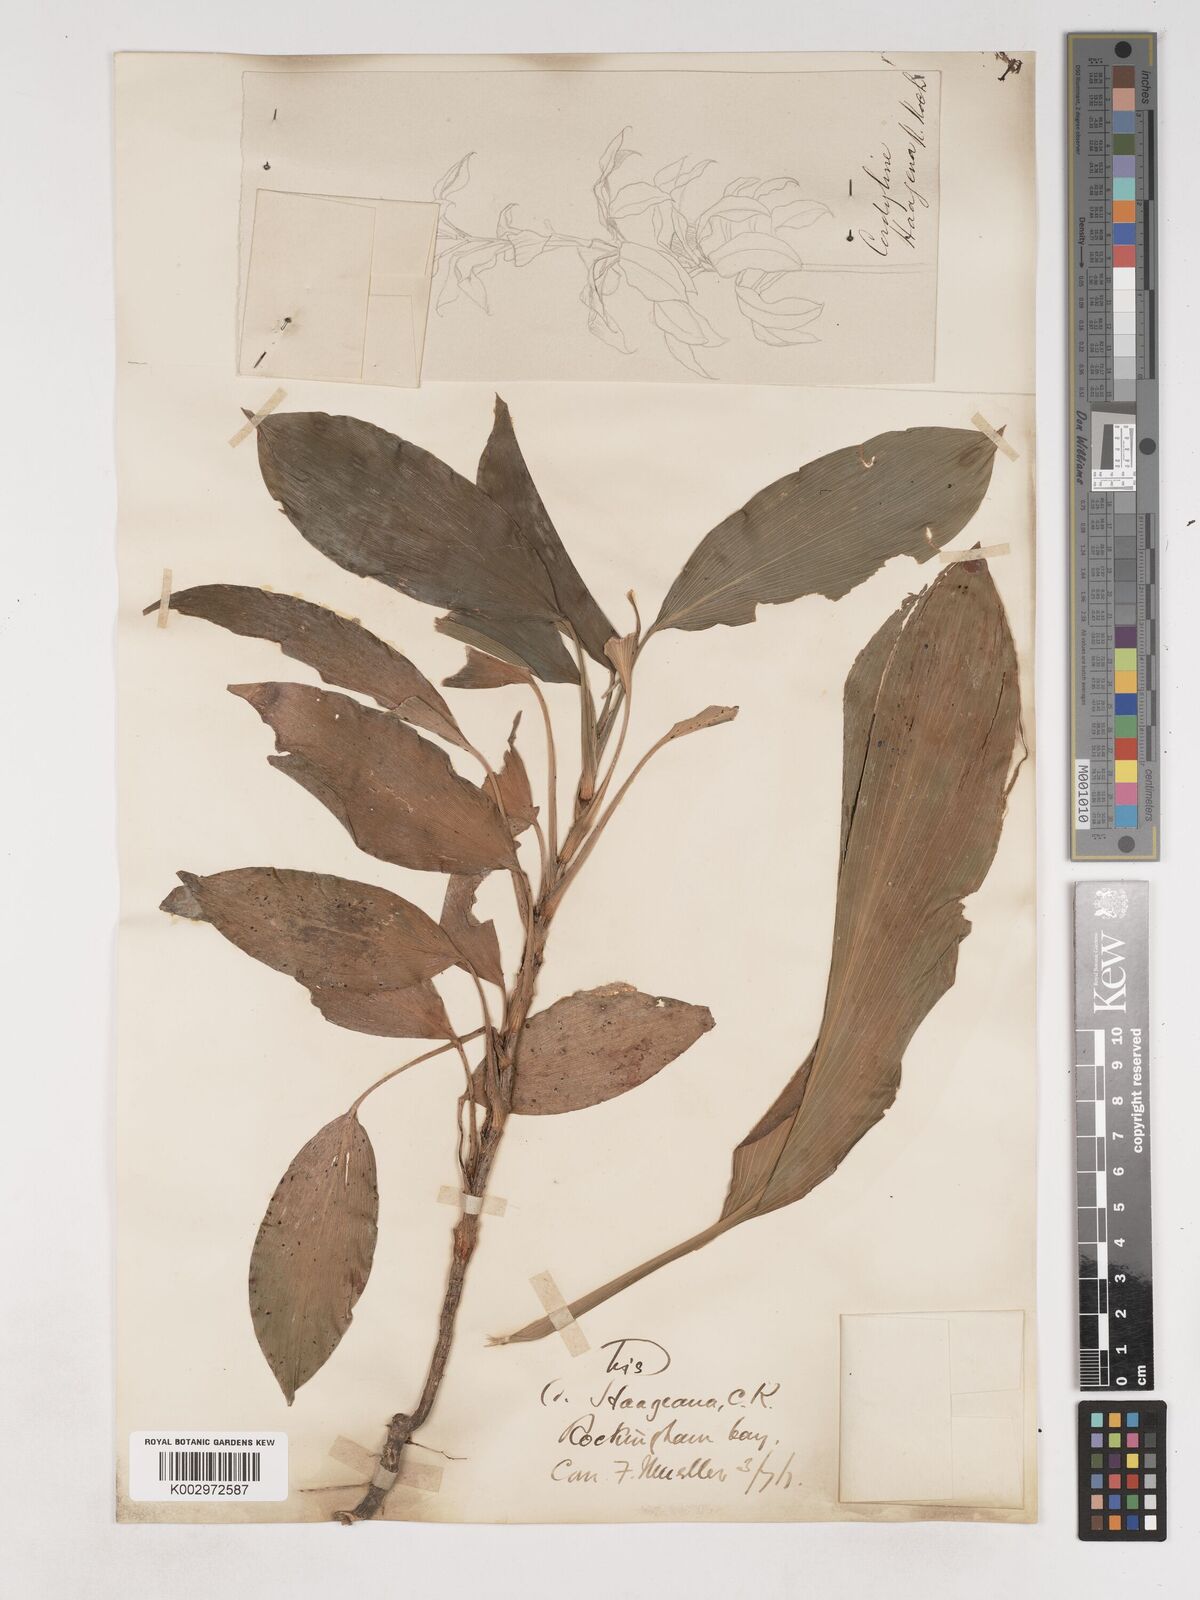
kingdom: Plantae
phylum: Tracheophyta
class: Liliopsida
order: Asparagales
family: Asparagaceae
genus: Cordyline
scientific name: Cordyline murchisoniae
